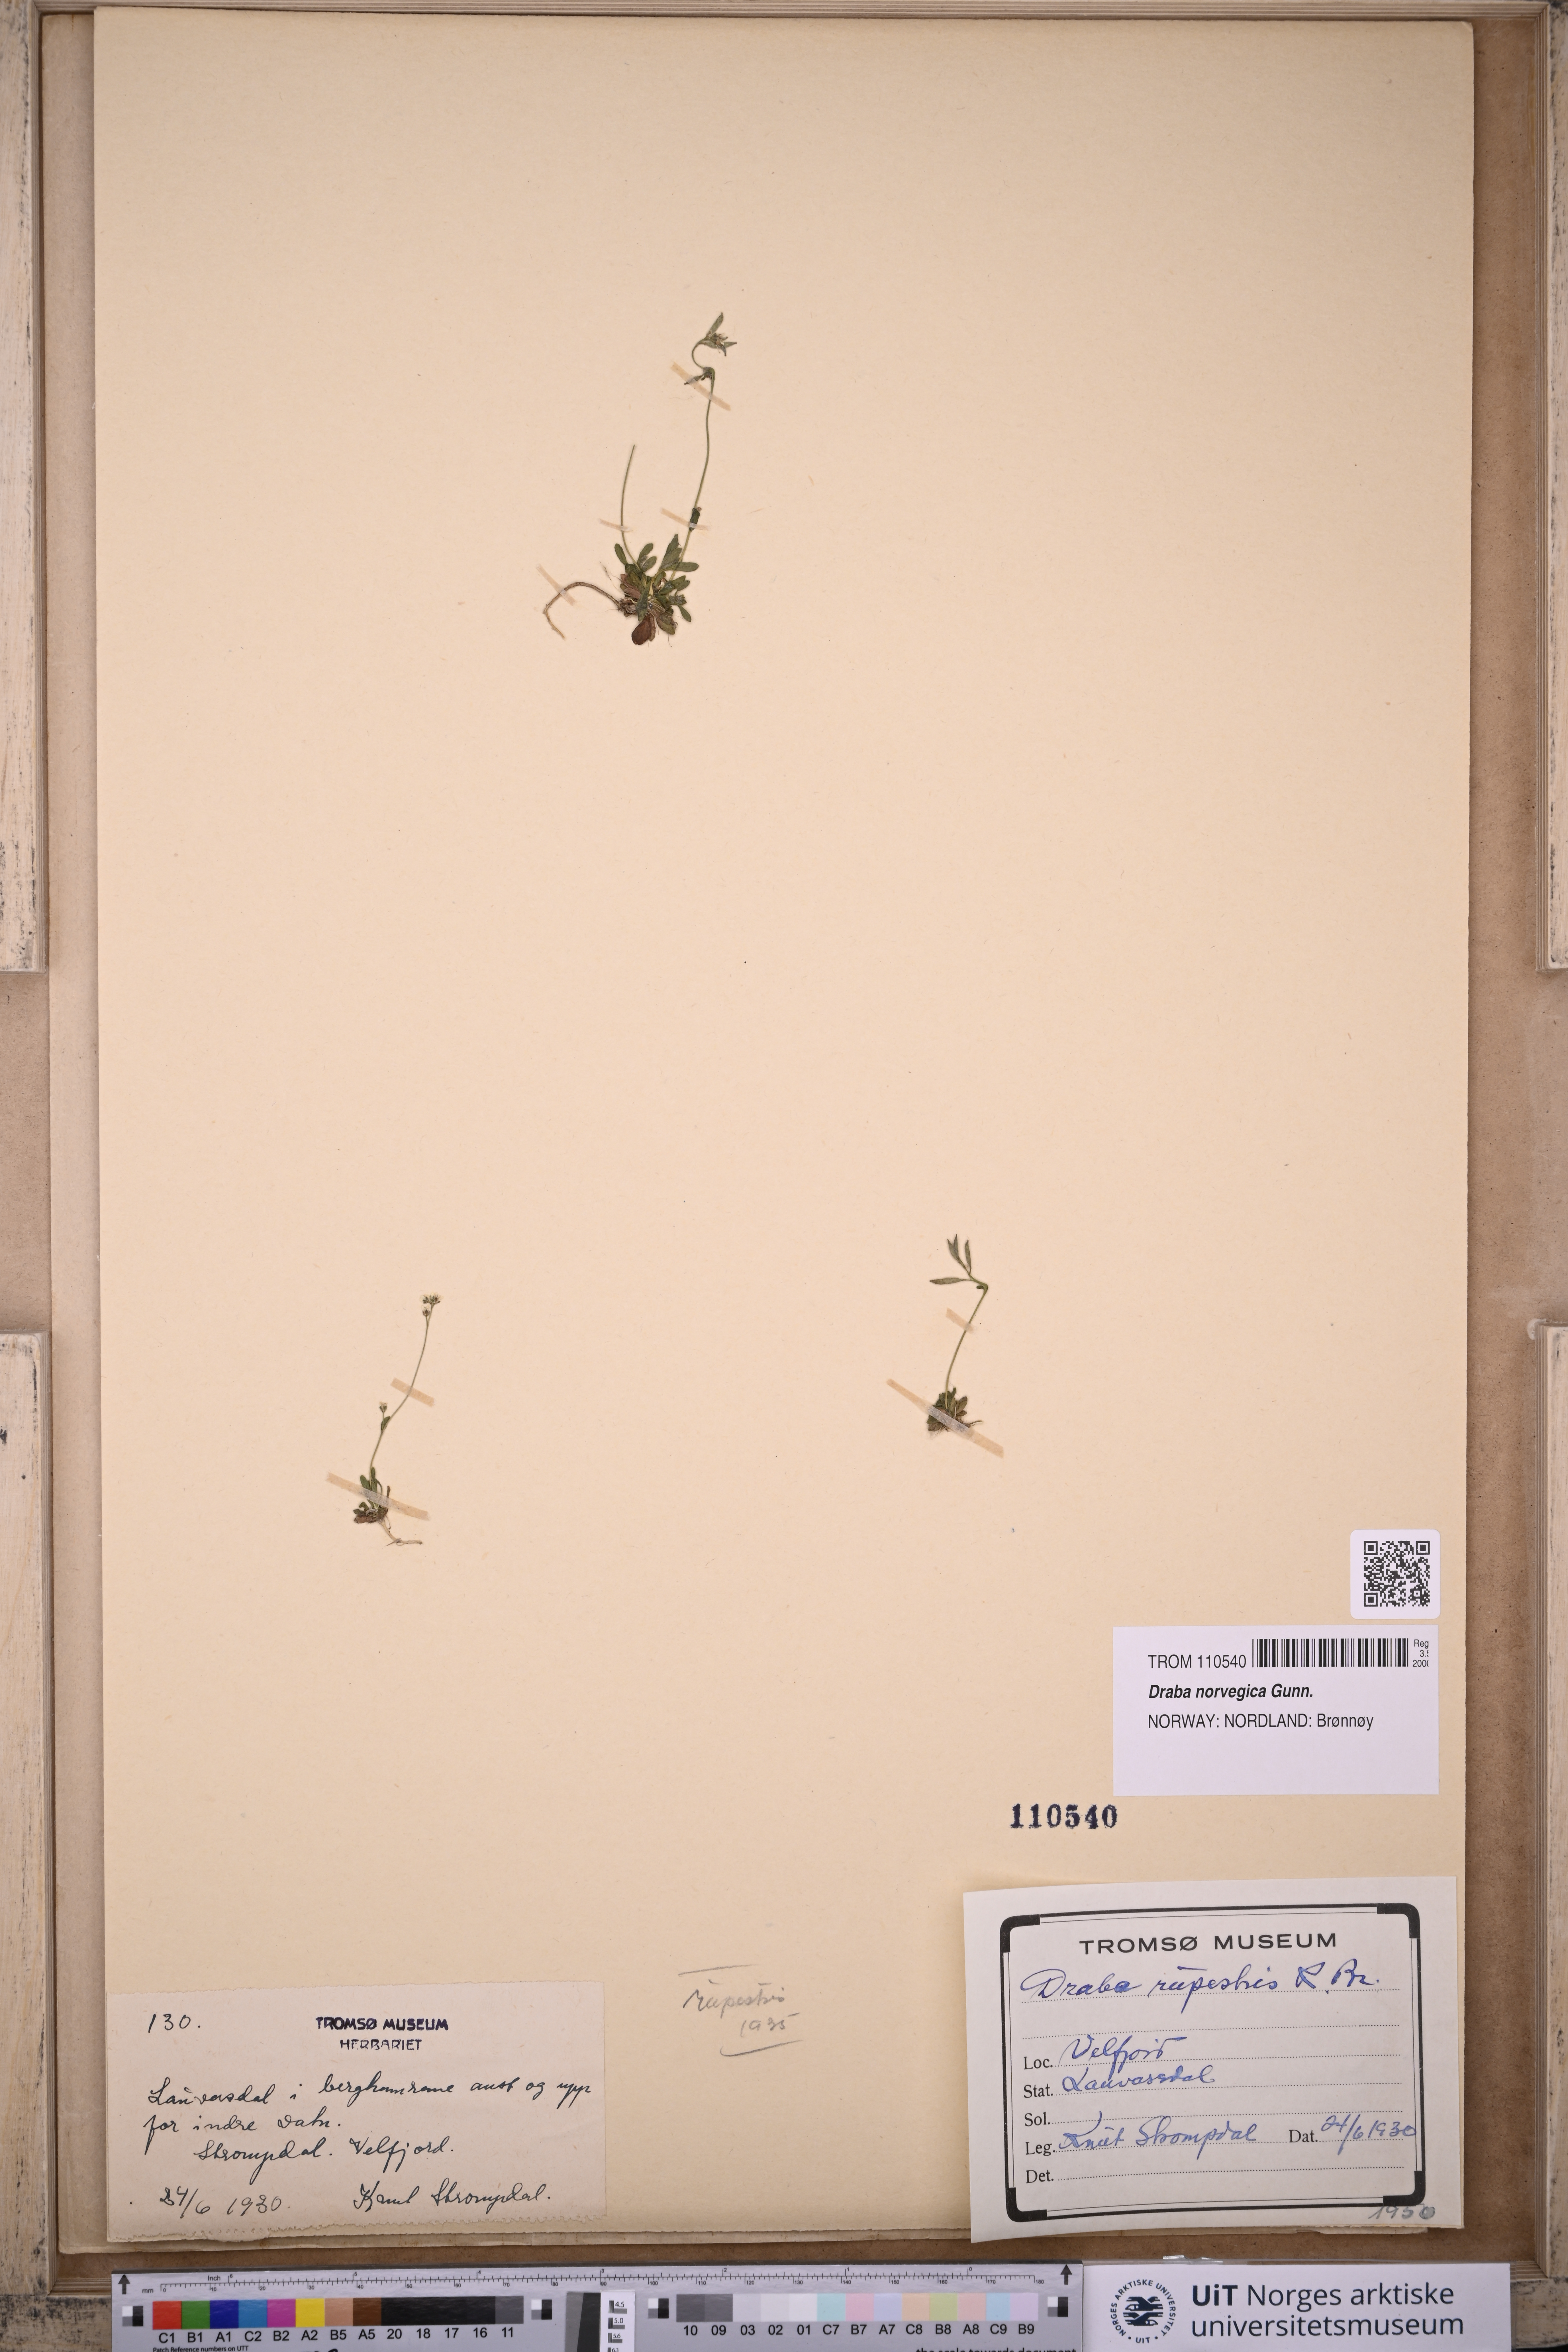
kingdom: Plantae
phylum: Tracheophyta
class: Magnoliopsida
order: Brassicales
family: Brassicaceae
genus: Draba
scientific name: Draba norvegica
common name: Rock whitlowgrass
